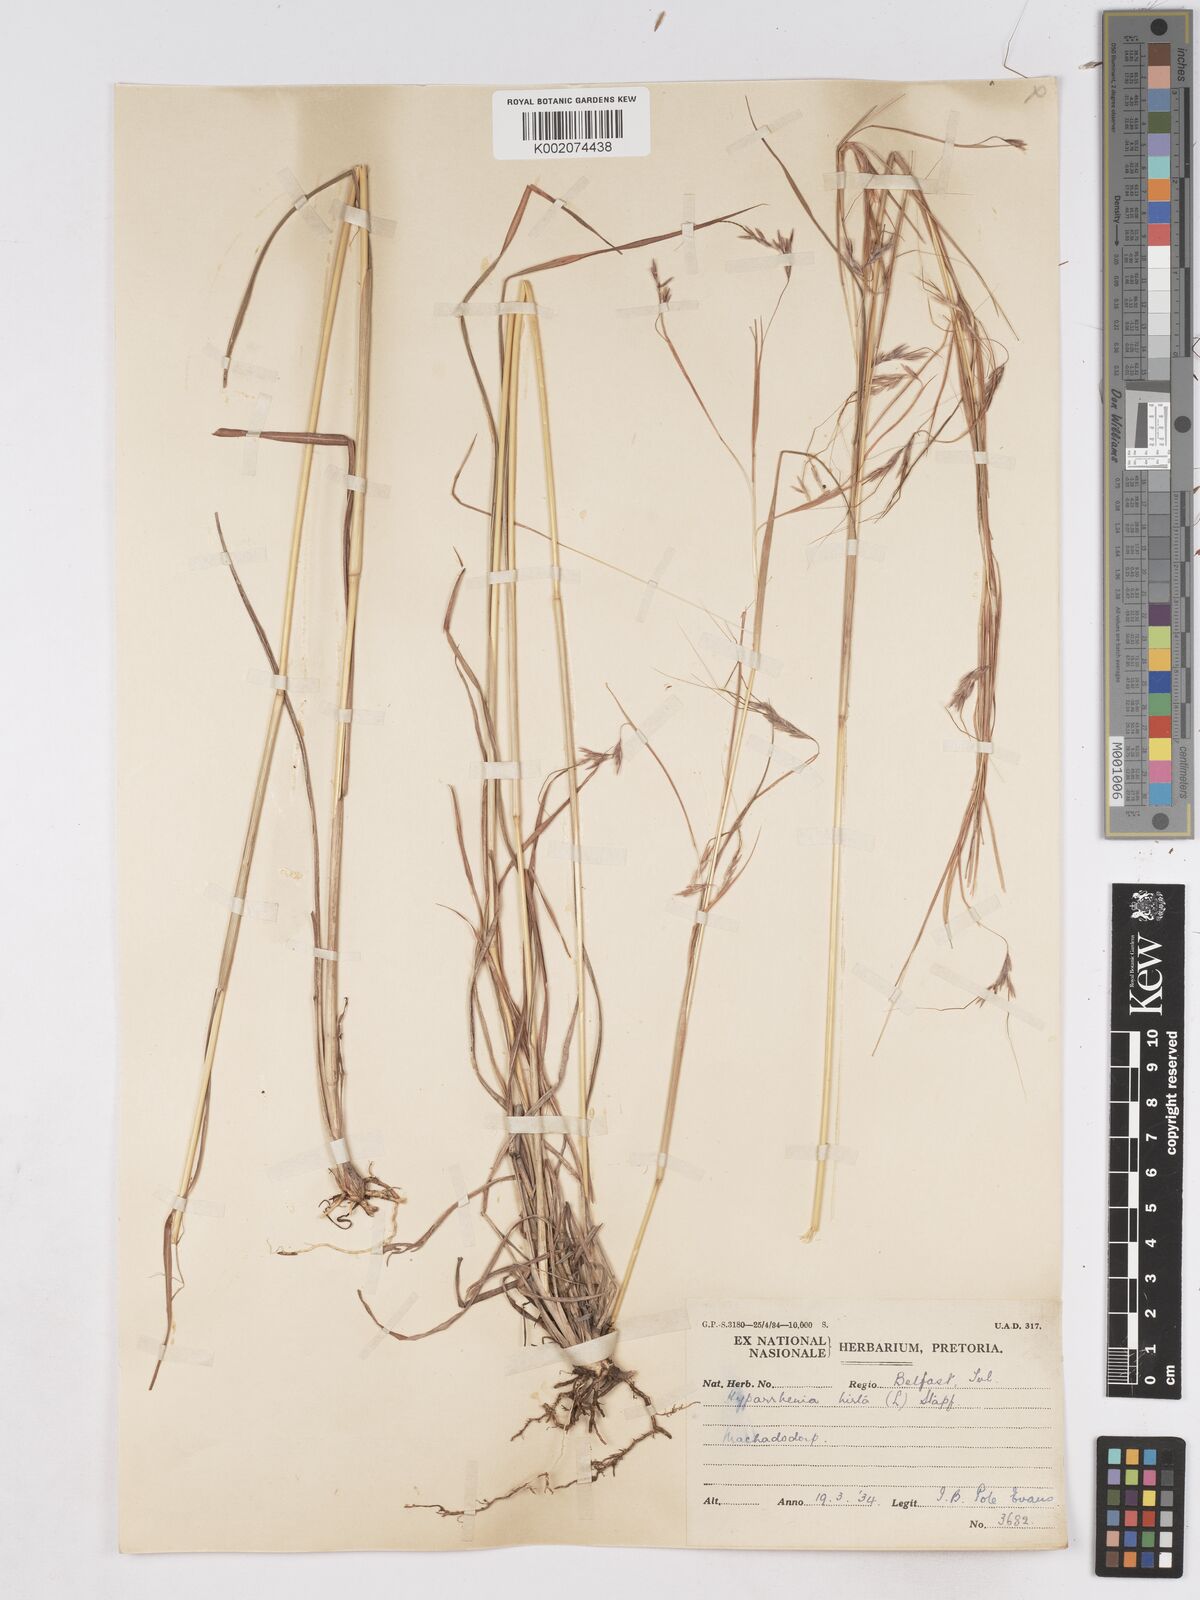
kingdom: Plantae
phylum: Tracheophyta
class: Liliopsida
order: Poales
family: Poaceae
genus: Hyparrhenia
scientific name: Hyparrhenia hirta
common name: Thatching grass
